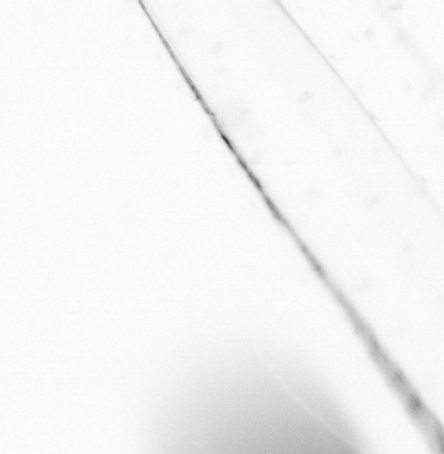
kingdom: Animalia
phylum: Chaetognatha
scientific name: Chaetognatha
